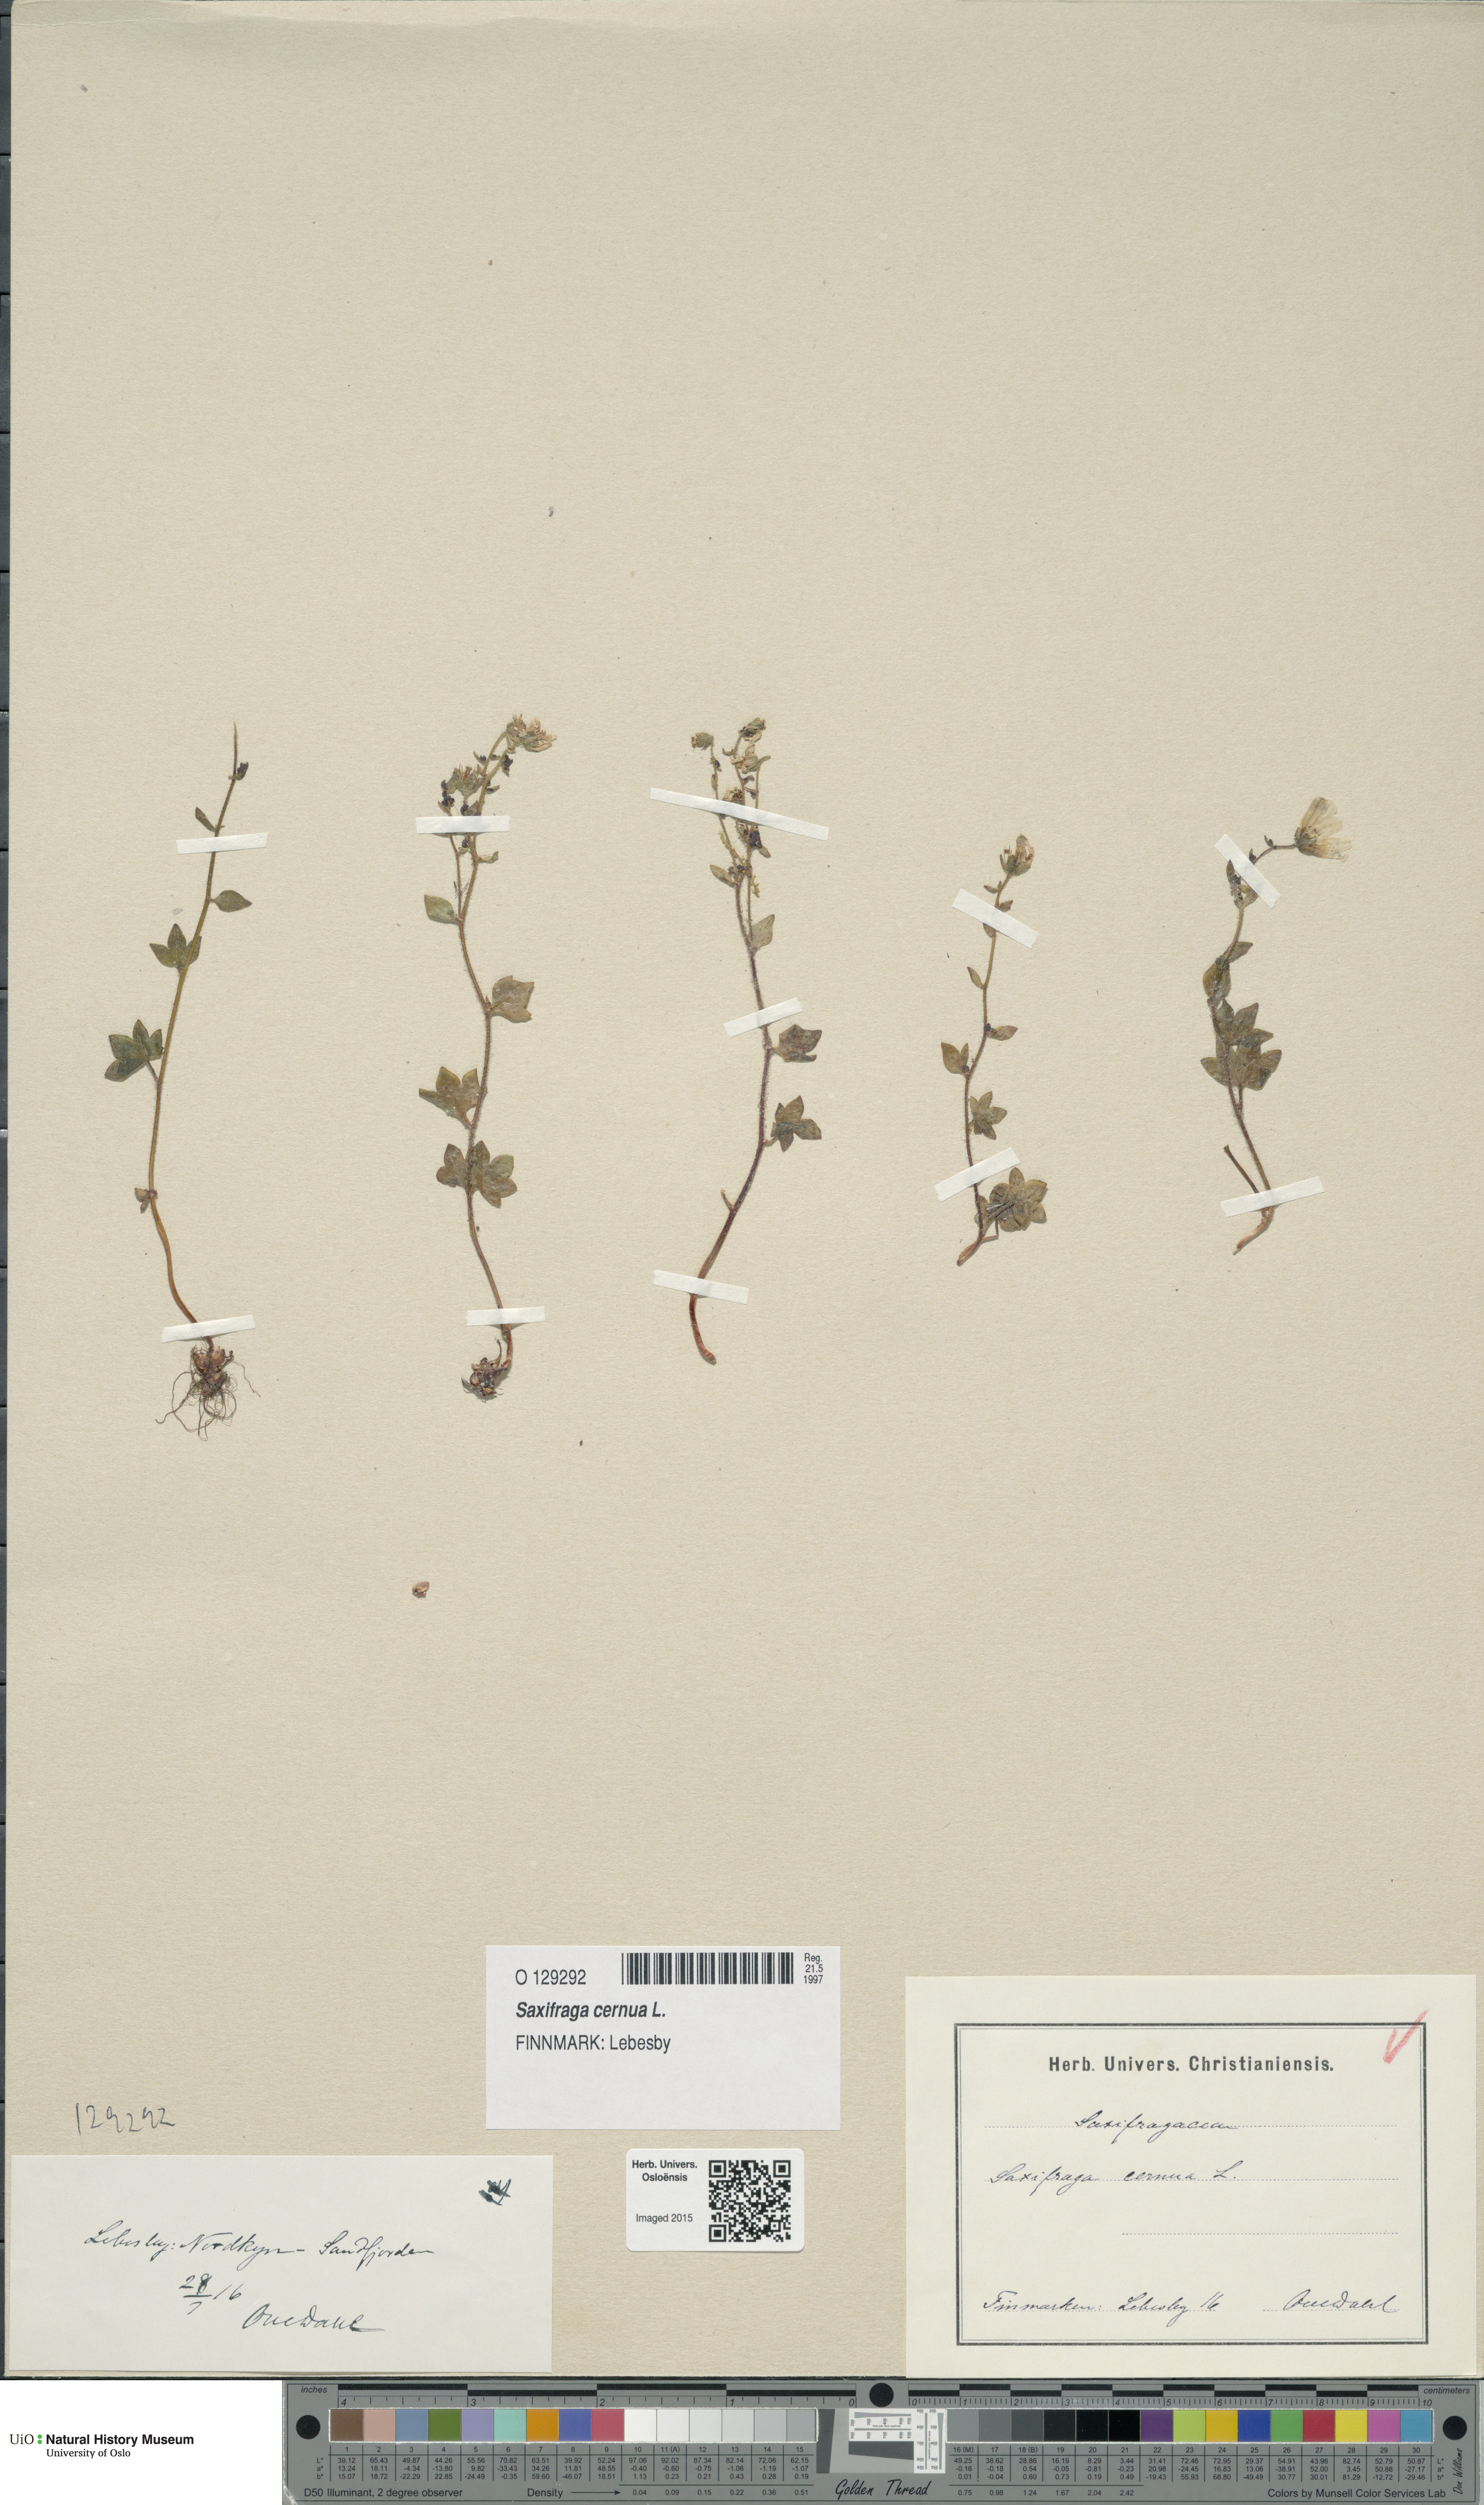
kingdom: Plantae
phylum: Tracheophyta
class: Magnoliopsida
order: Saxifragales
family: Saxifragaceae
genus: Saxifraga
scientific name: Saxifraga cernua
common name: Drooping saxifrage
